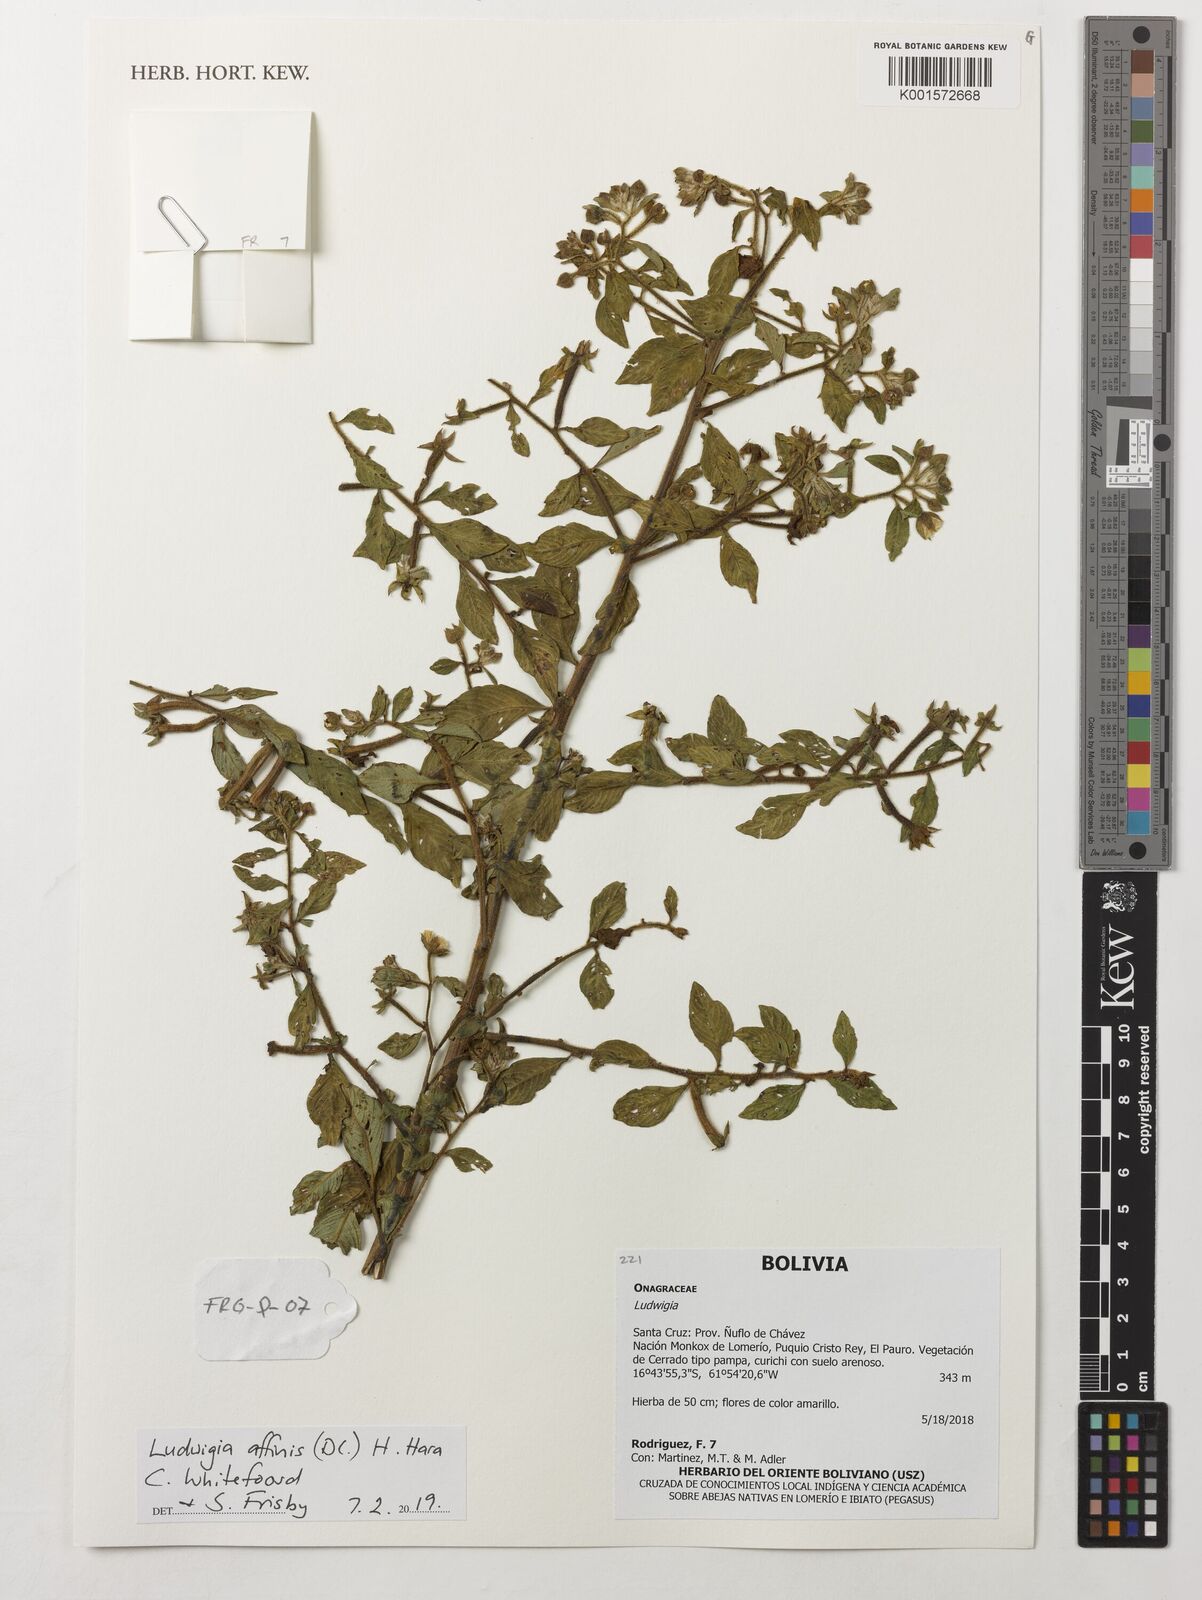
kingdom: Plantae
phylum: Tracheophyta
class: Magnoliopsida
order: Myrtales
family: Onagraceae
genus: Ludwigia
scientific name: Ludwigia affinis
